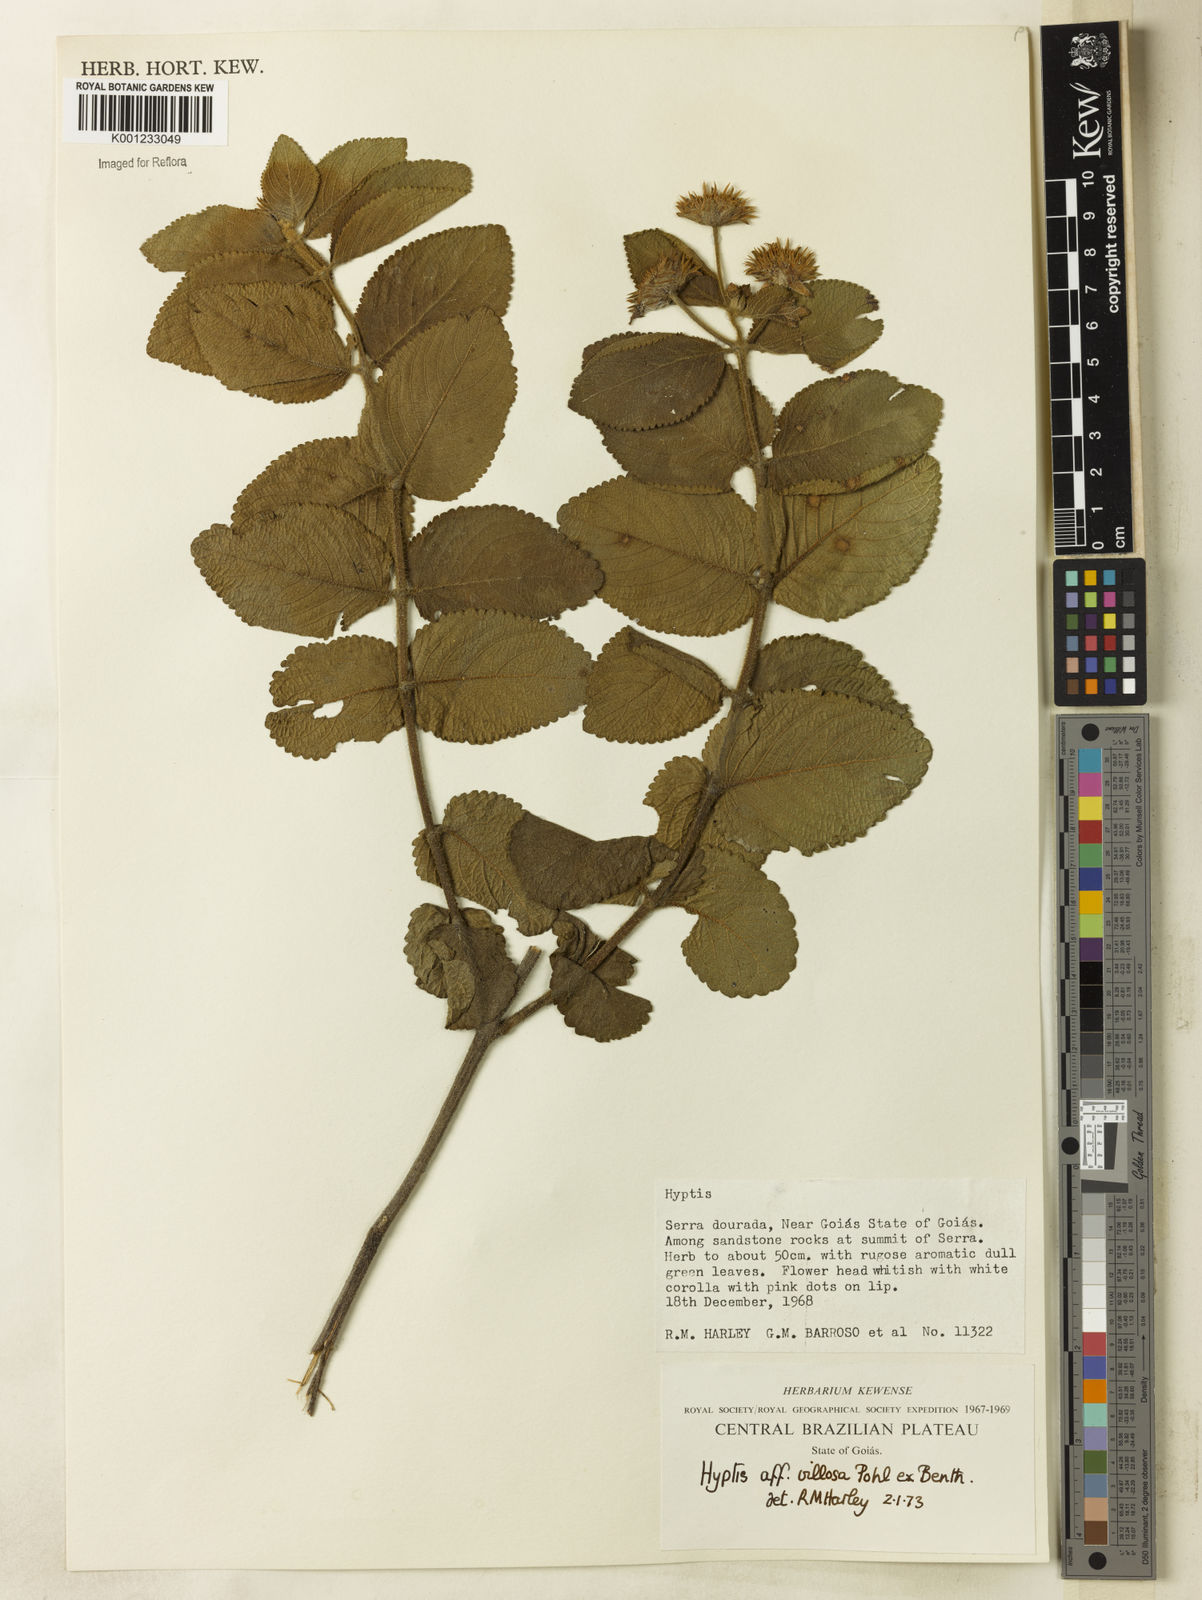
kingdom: Plantae
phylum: Tracheophyta
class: Magnoliopsida
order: Lamiales
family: Lamiaceae
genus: Hyptis
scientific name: Hyptis remota
